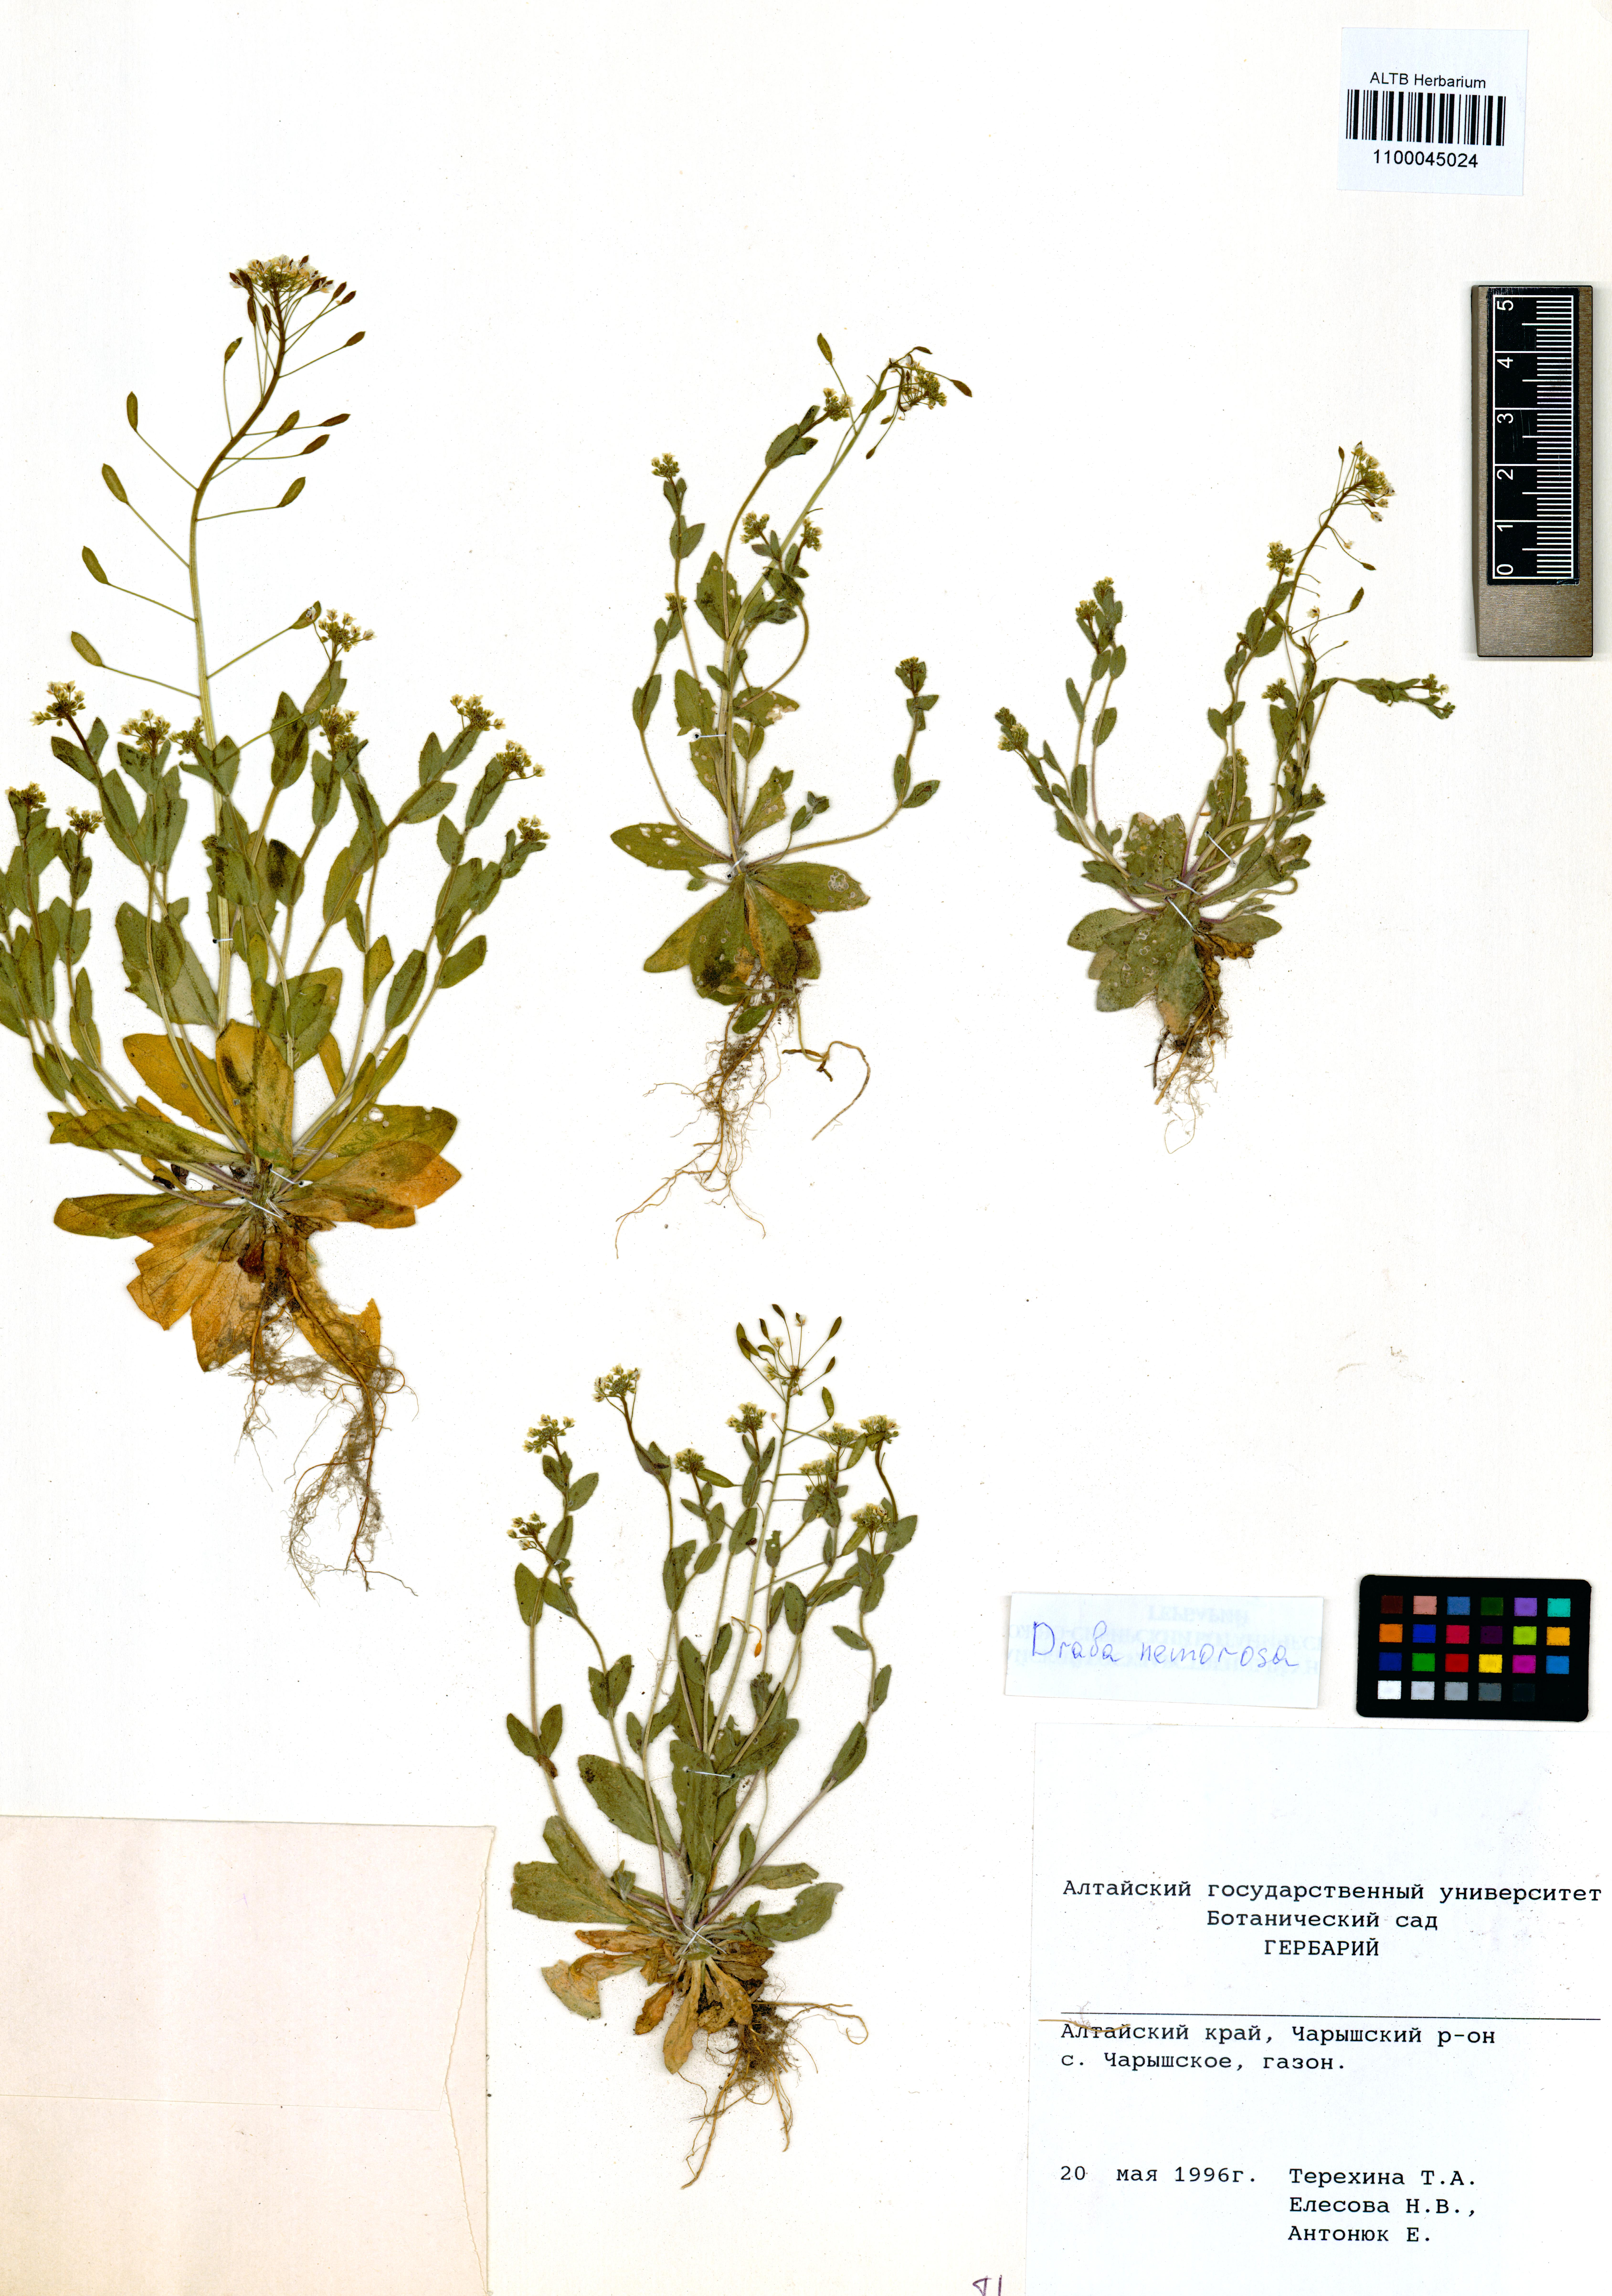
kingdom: Plantae
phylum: Tracheophyta
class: Magnoliopsida
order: Brassicales
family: Brassicaceae
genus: Draba
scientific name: Draba nemorosa
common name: Wood whitlow-grass
